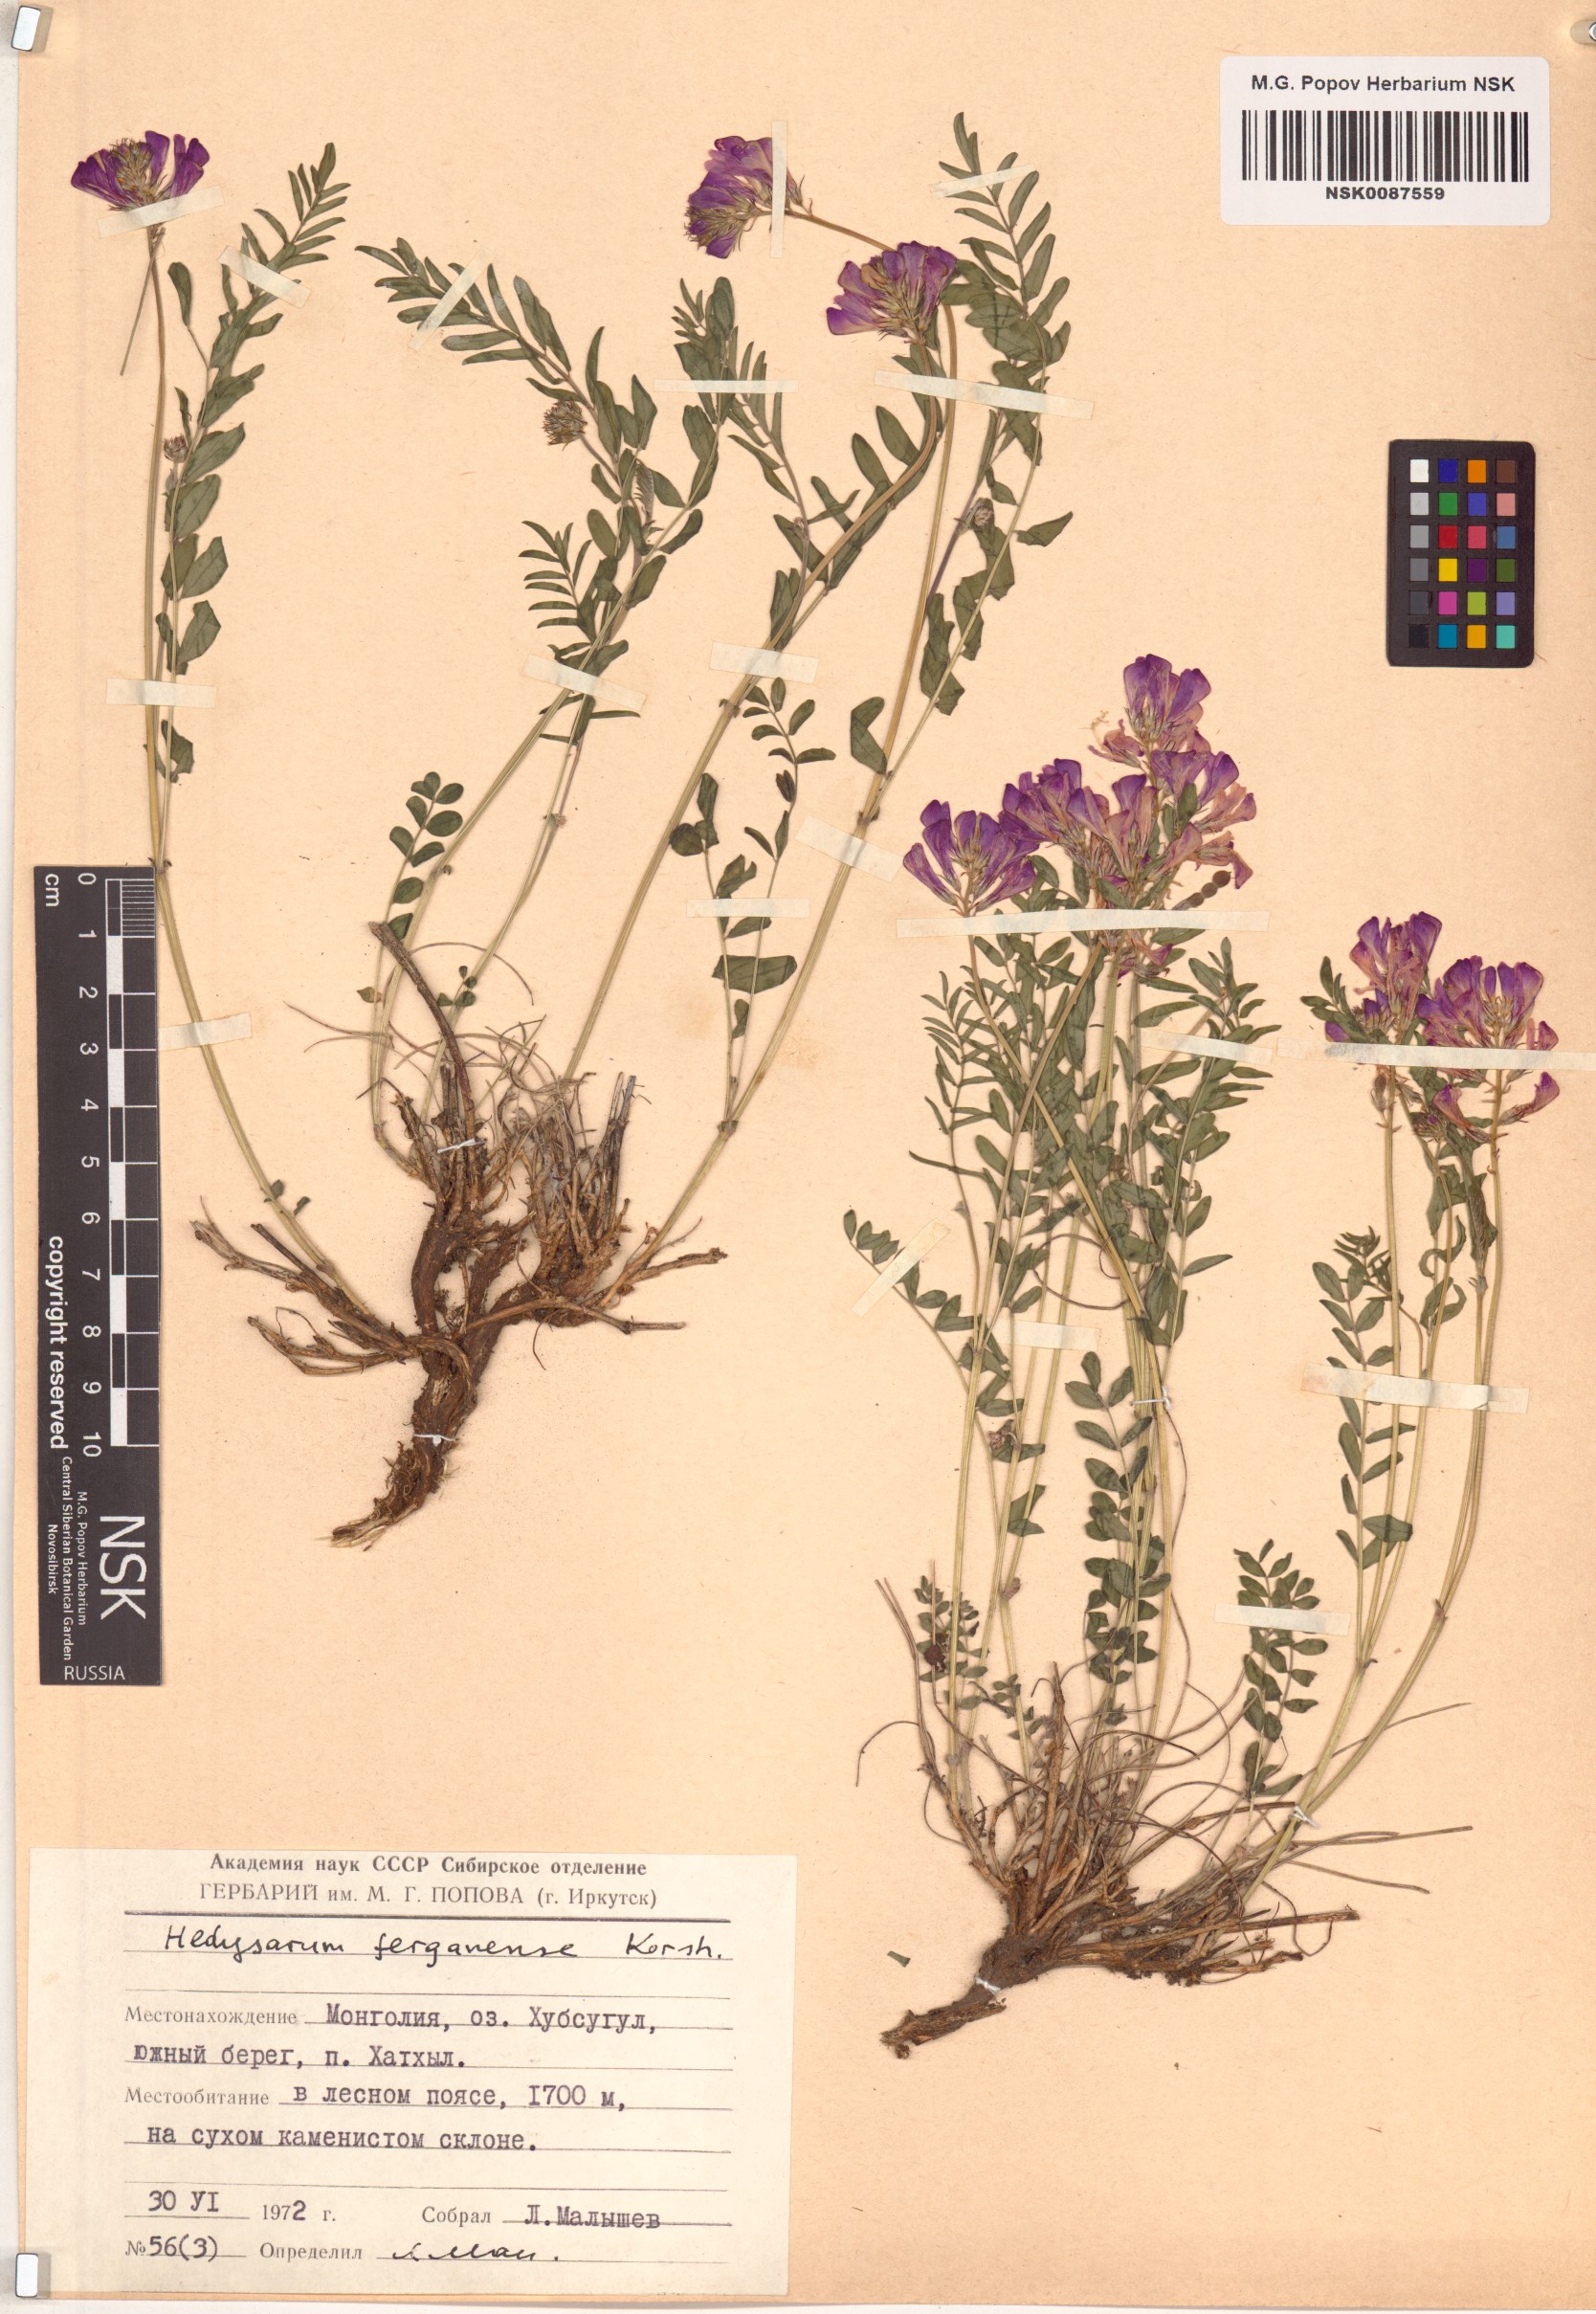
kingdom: Plantae
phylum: Tracheophyta
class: Magnoliopsida
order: Fabales
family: Fabaceae
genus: Hedysarum
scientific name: Hedysarum ferganense
